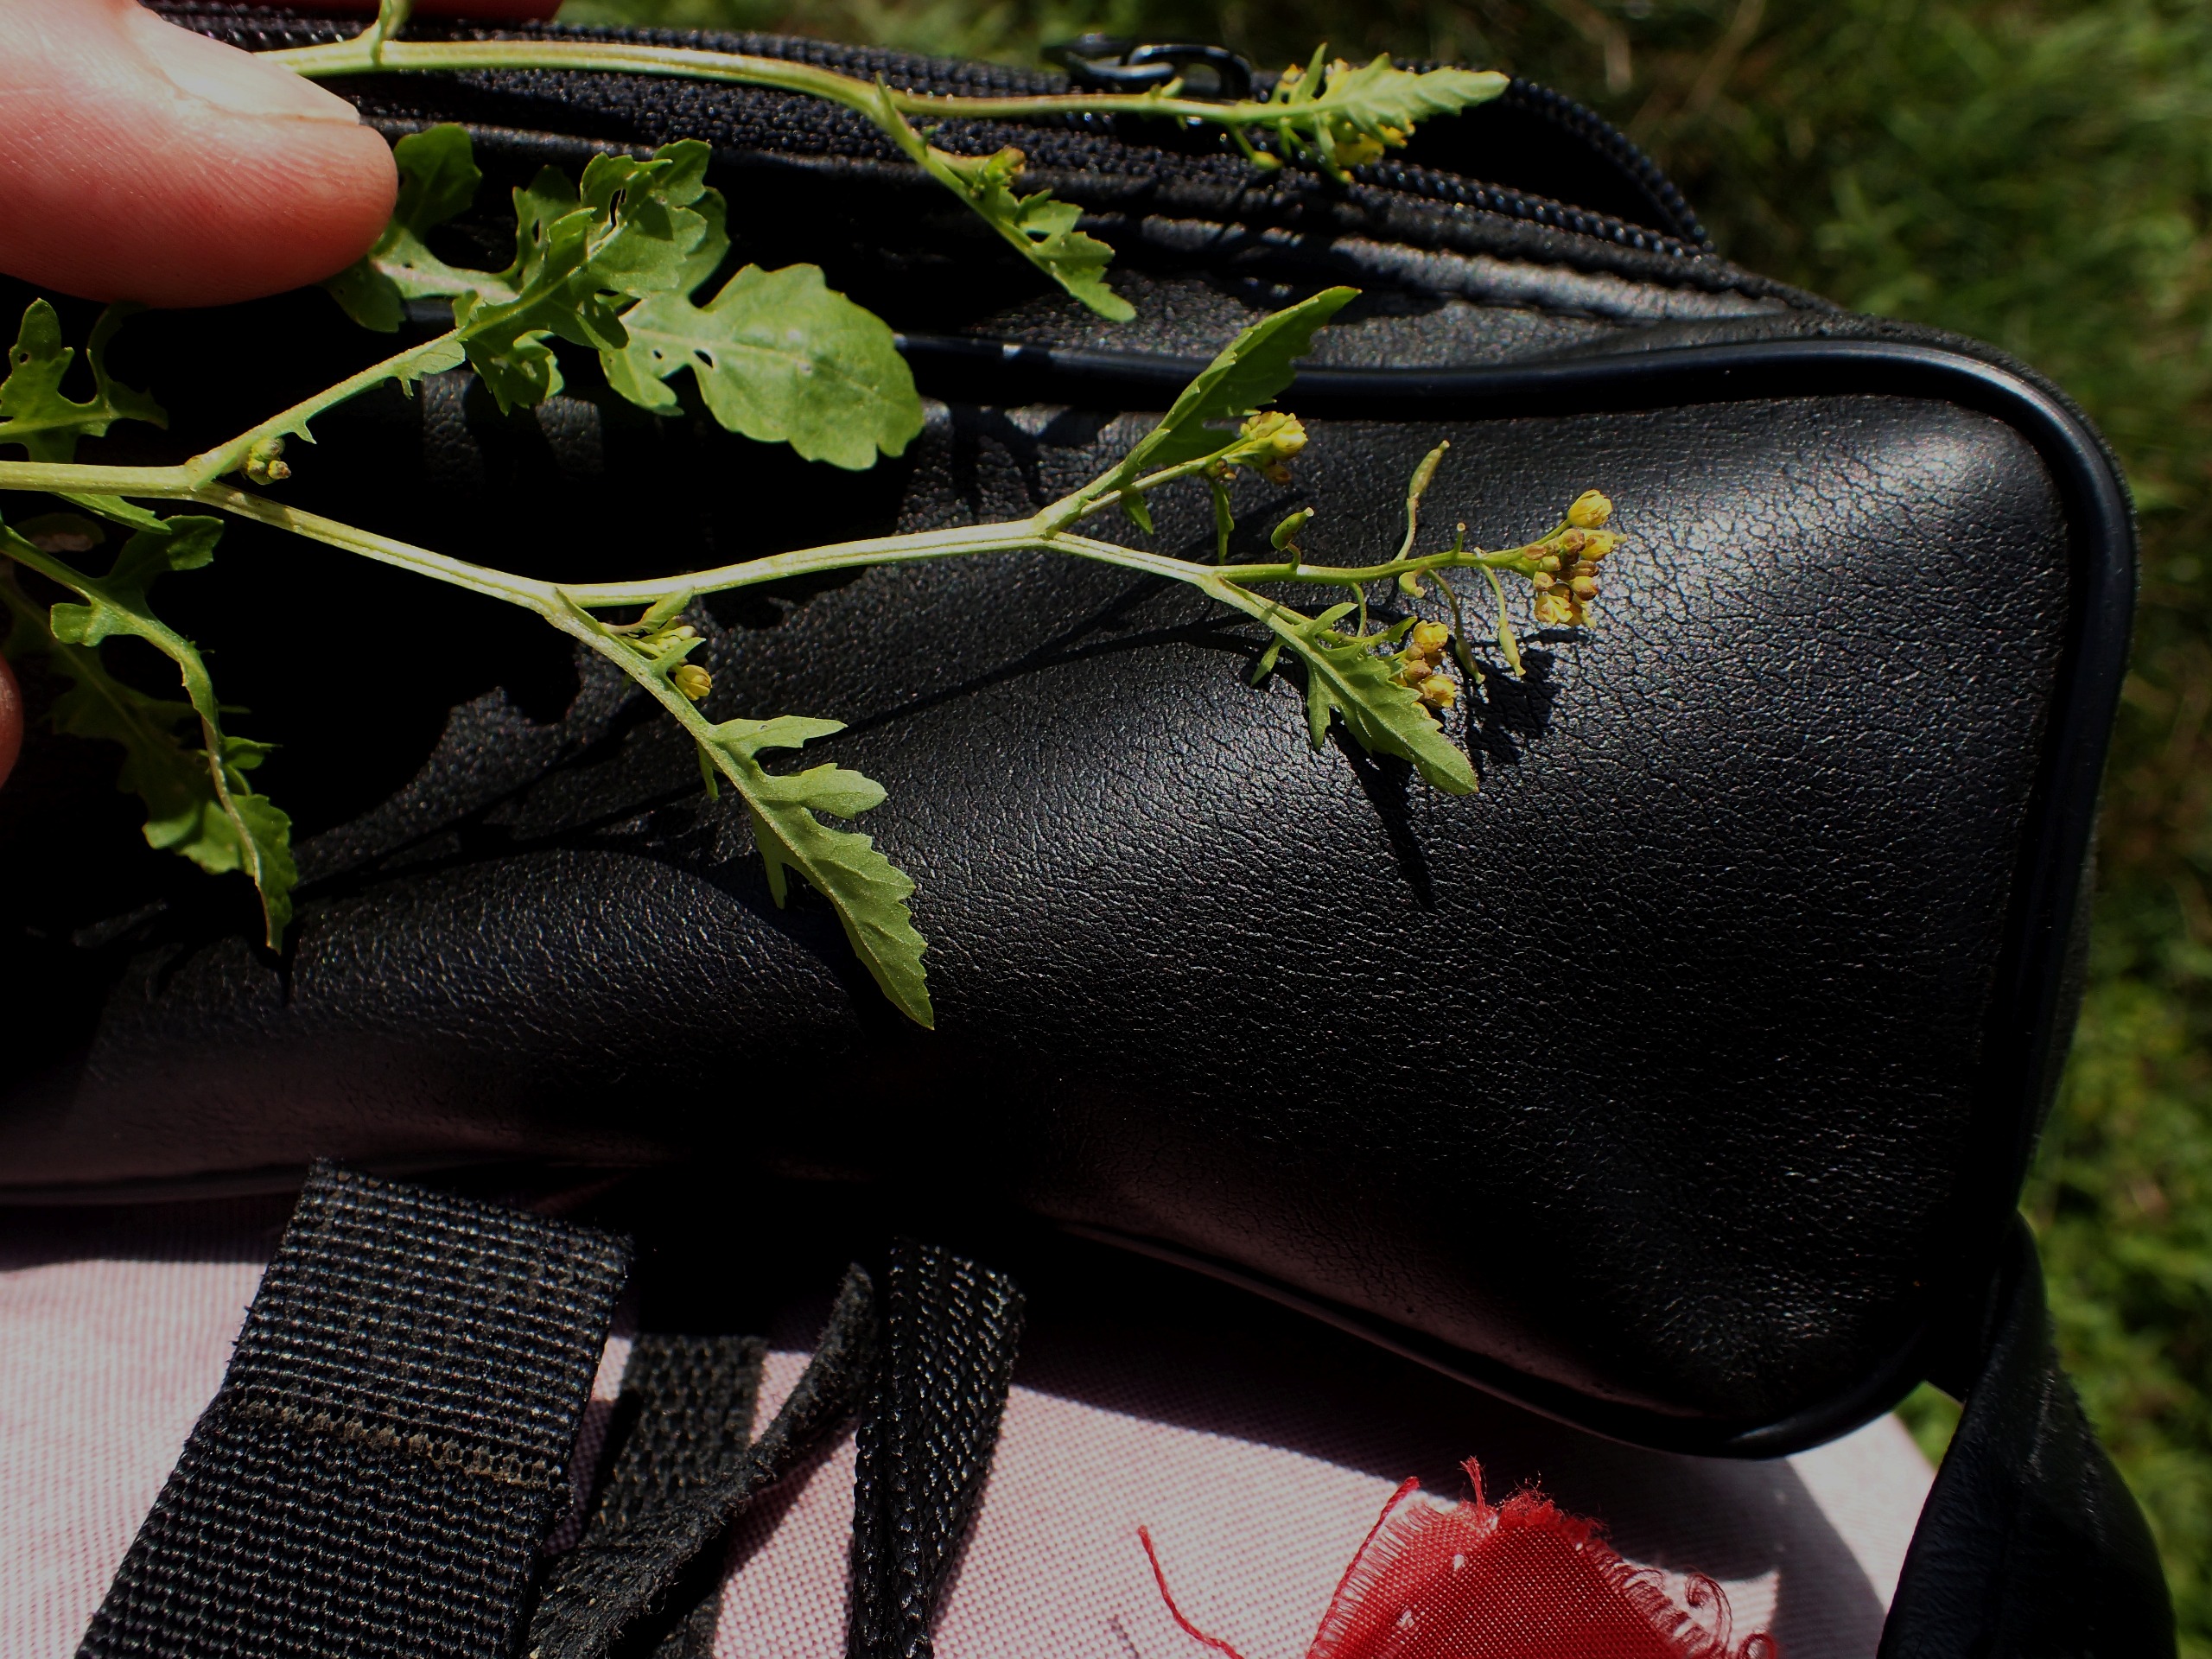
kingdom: Plantae
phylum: Tracheophyta
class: Magnoliopsida
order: Brassicales
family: Brassicaceae
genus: Rorippa
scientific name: Rorippa palustris
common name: Kær-guldkarse
